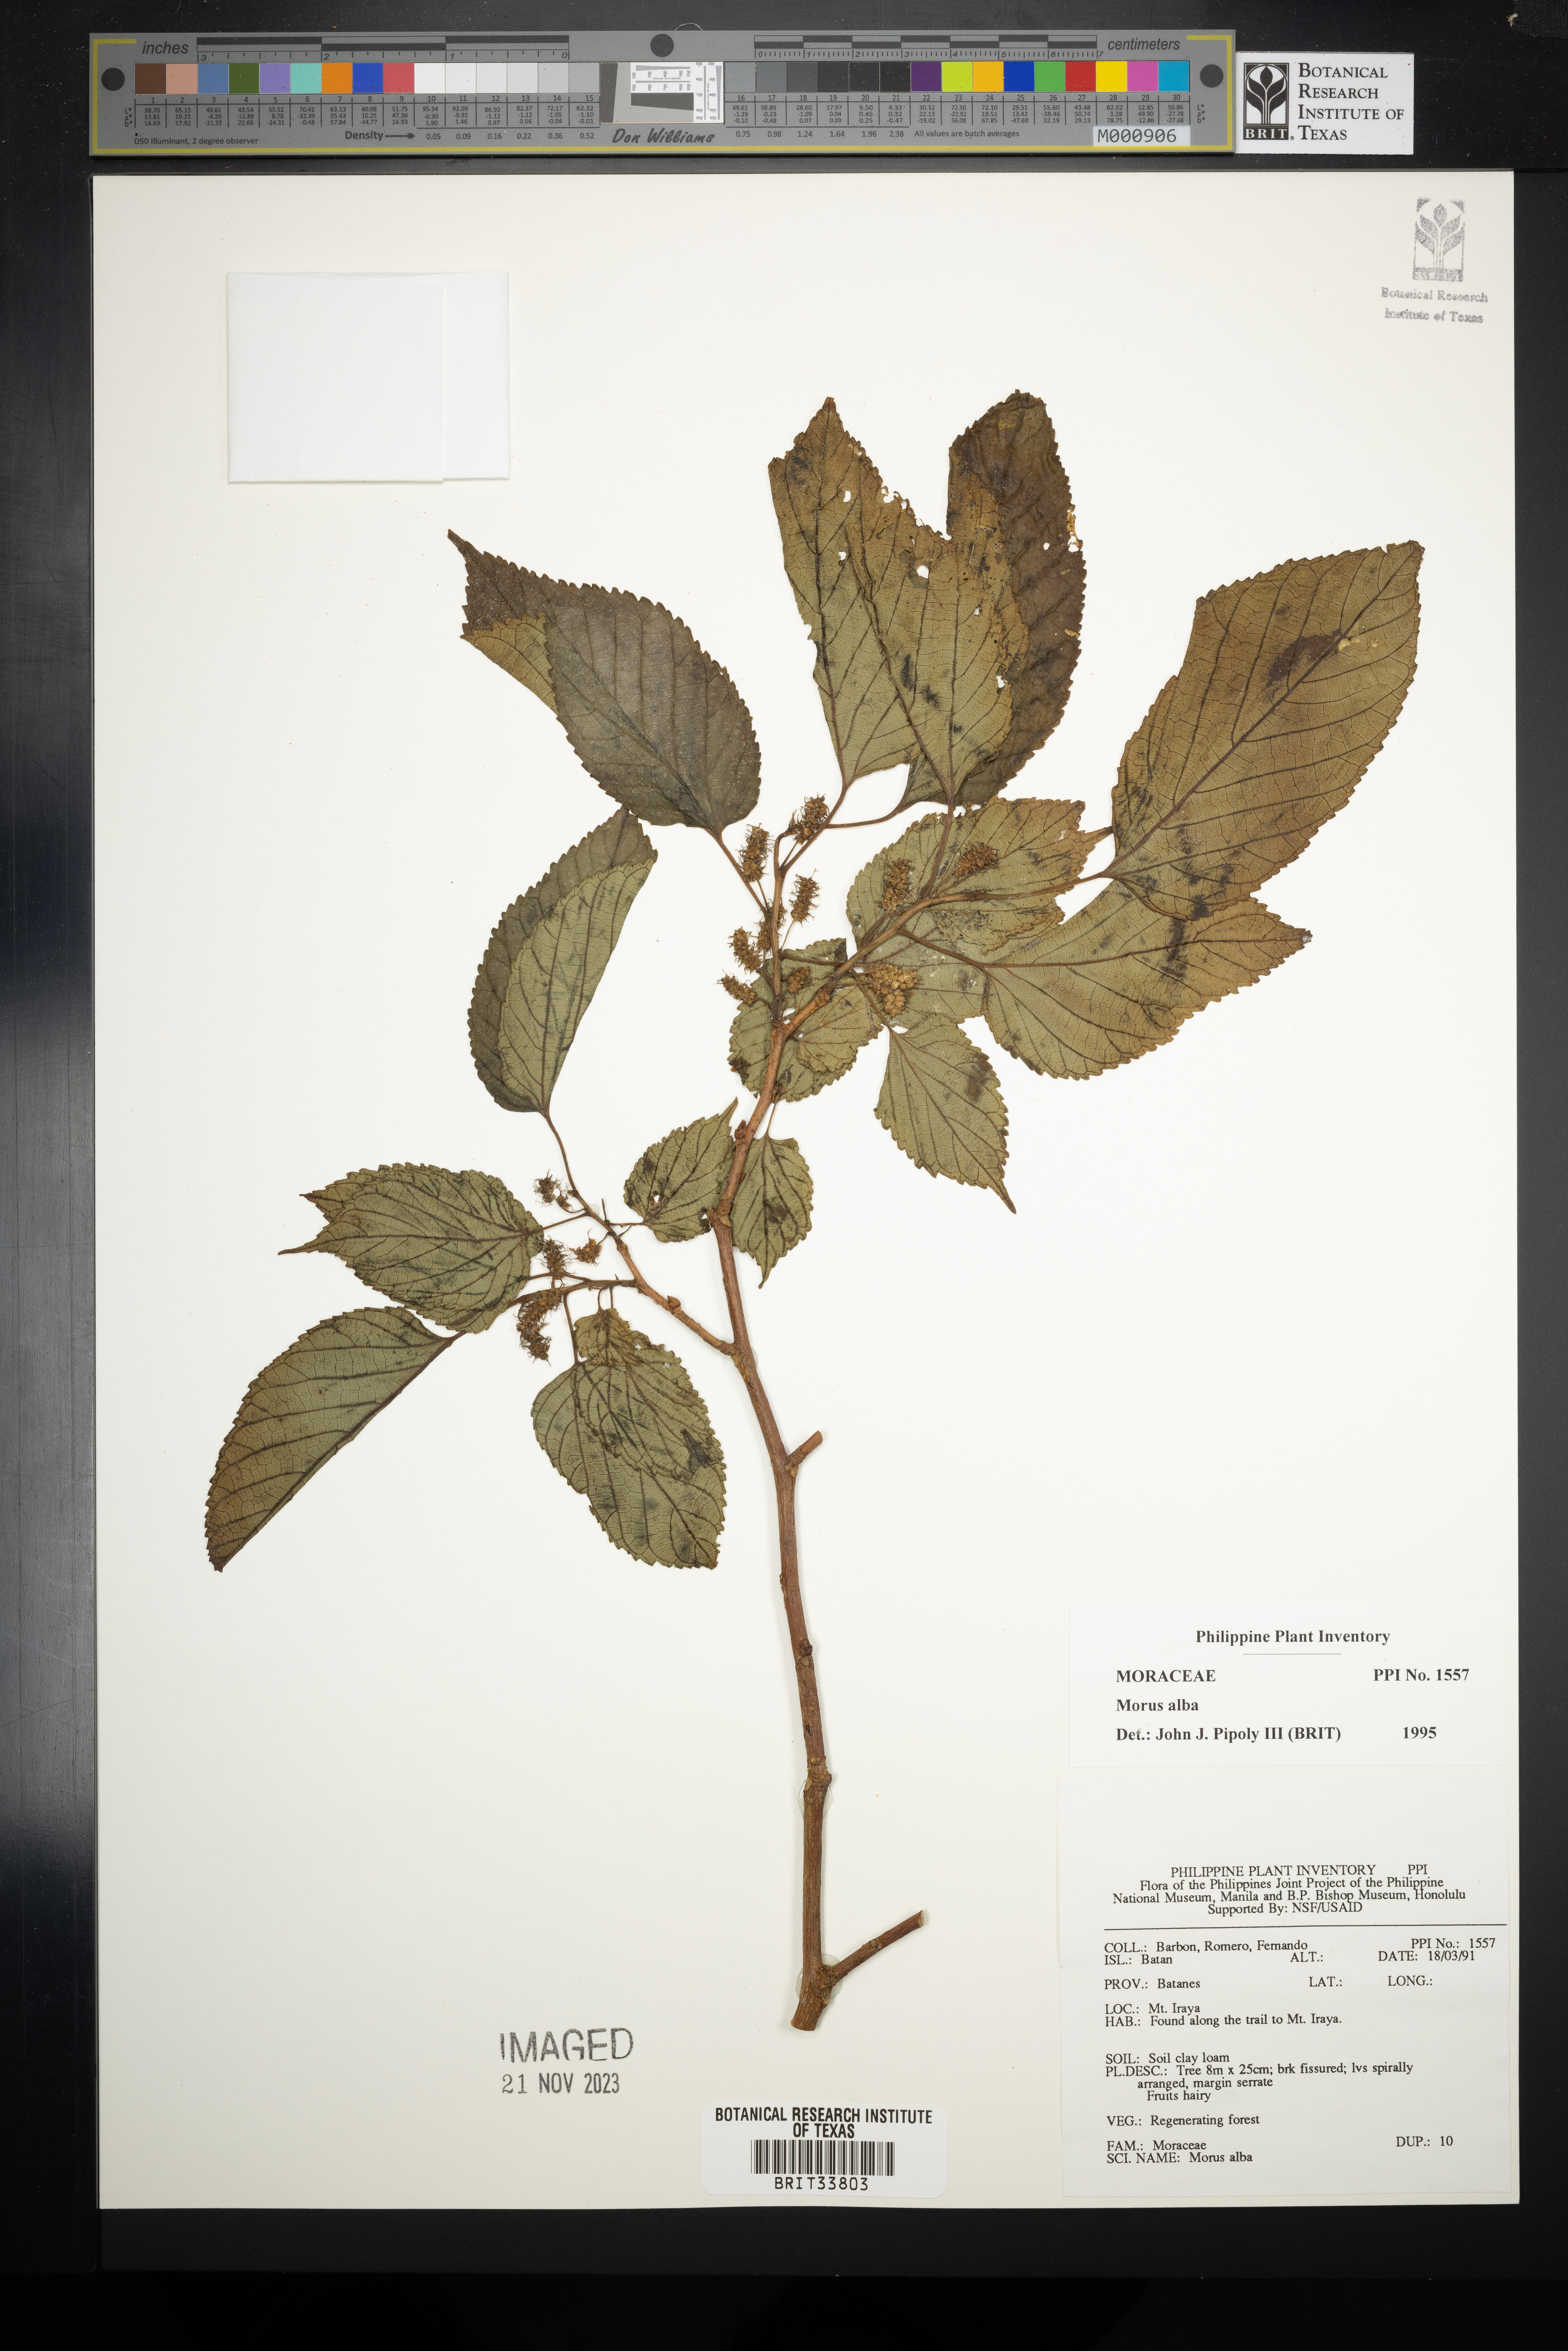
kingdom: Plantae
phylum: Tracheophyta
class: Magnoliopsida
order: Rosales
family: Moraceae
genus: Morus
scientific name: Morus alba
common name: White mulberry
